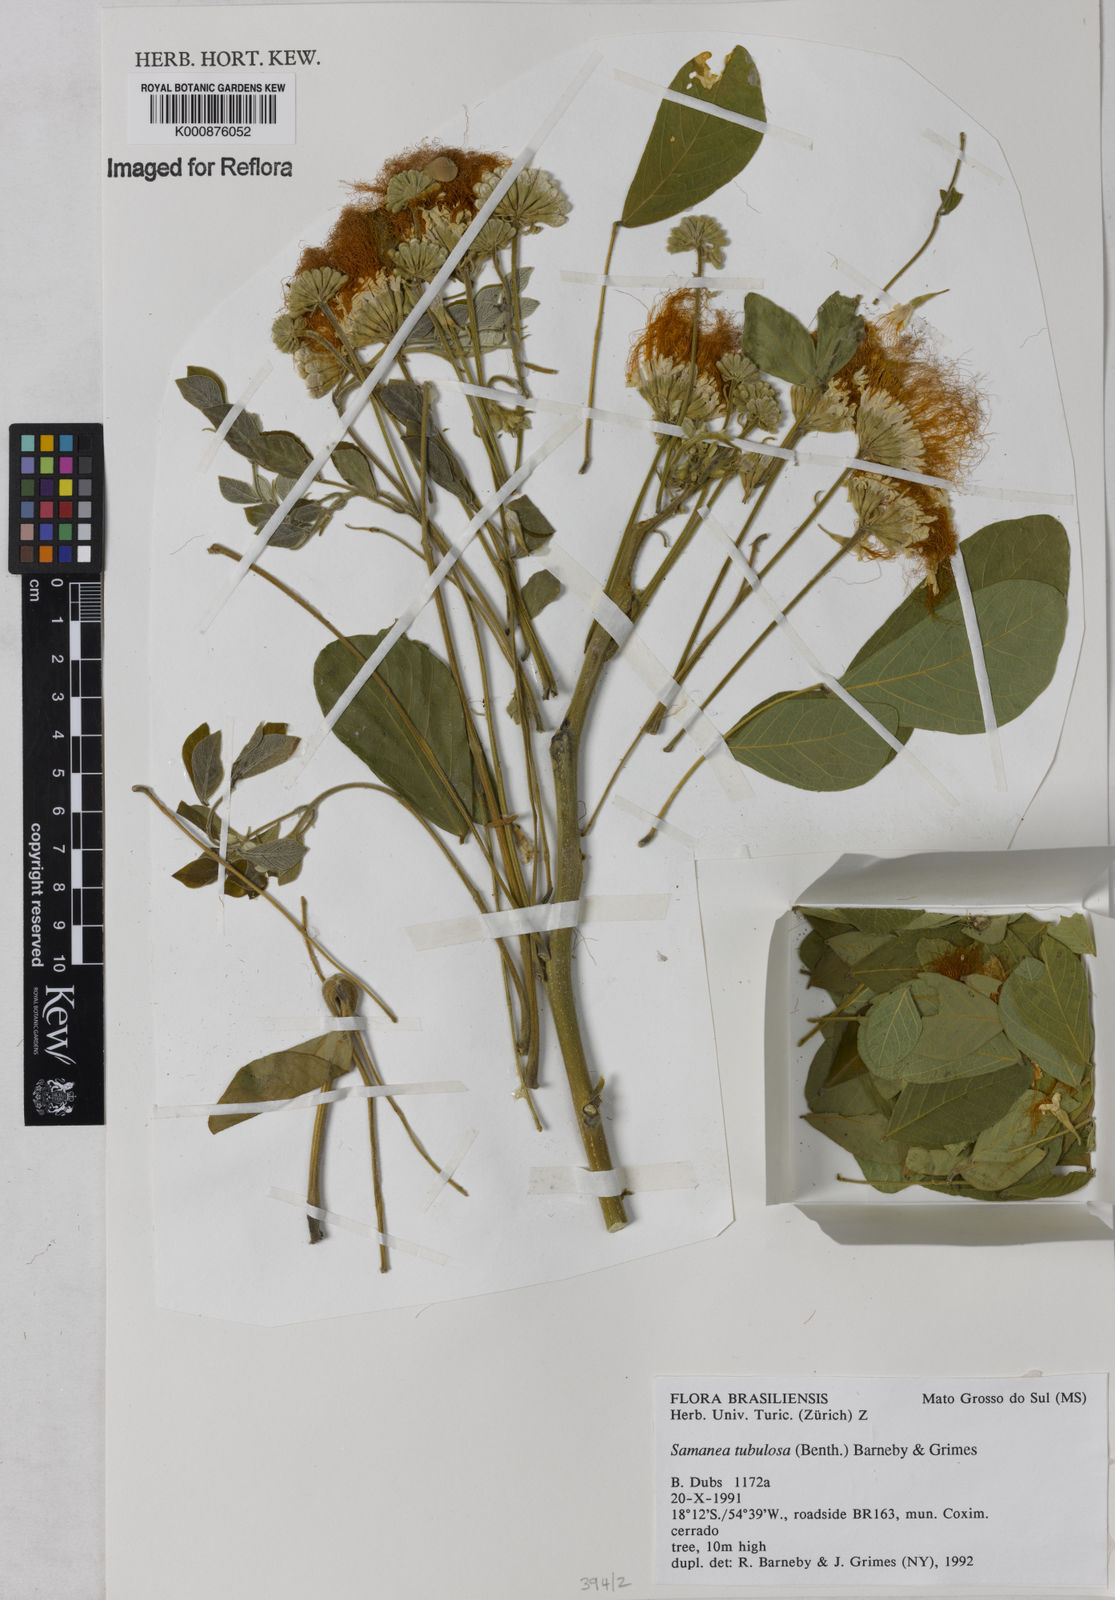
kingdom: Plantae
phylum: Tracheophyta
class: Magnoliopsida
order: Fabales
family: Fabaceae
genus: Samanea
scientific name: Samanea tubulosa
